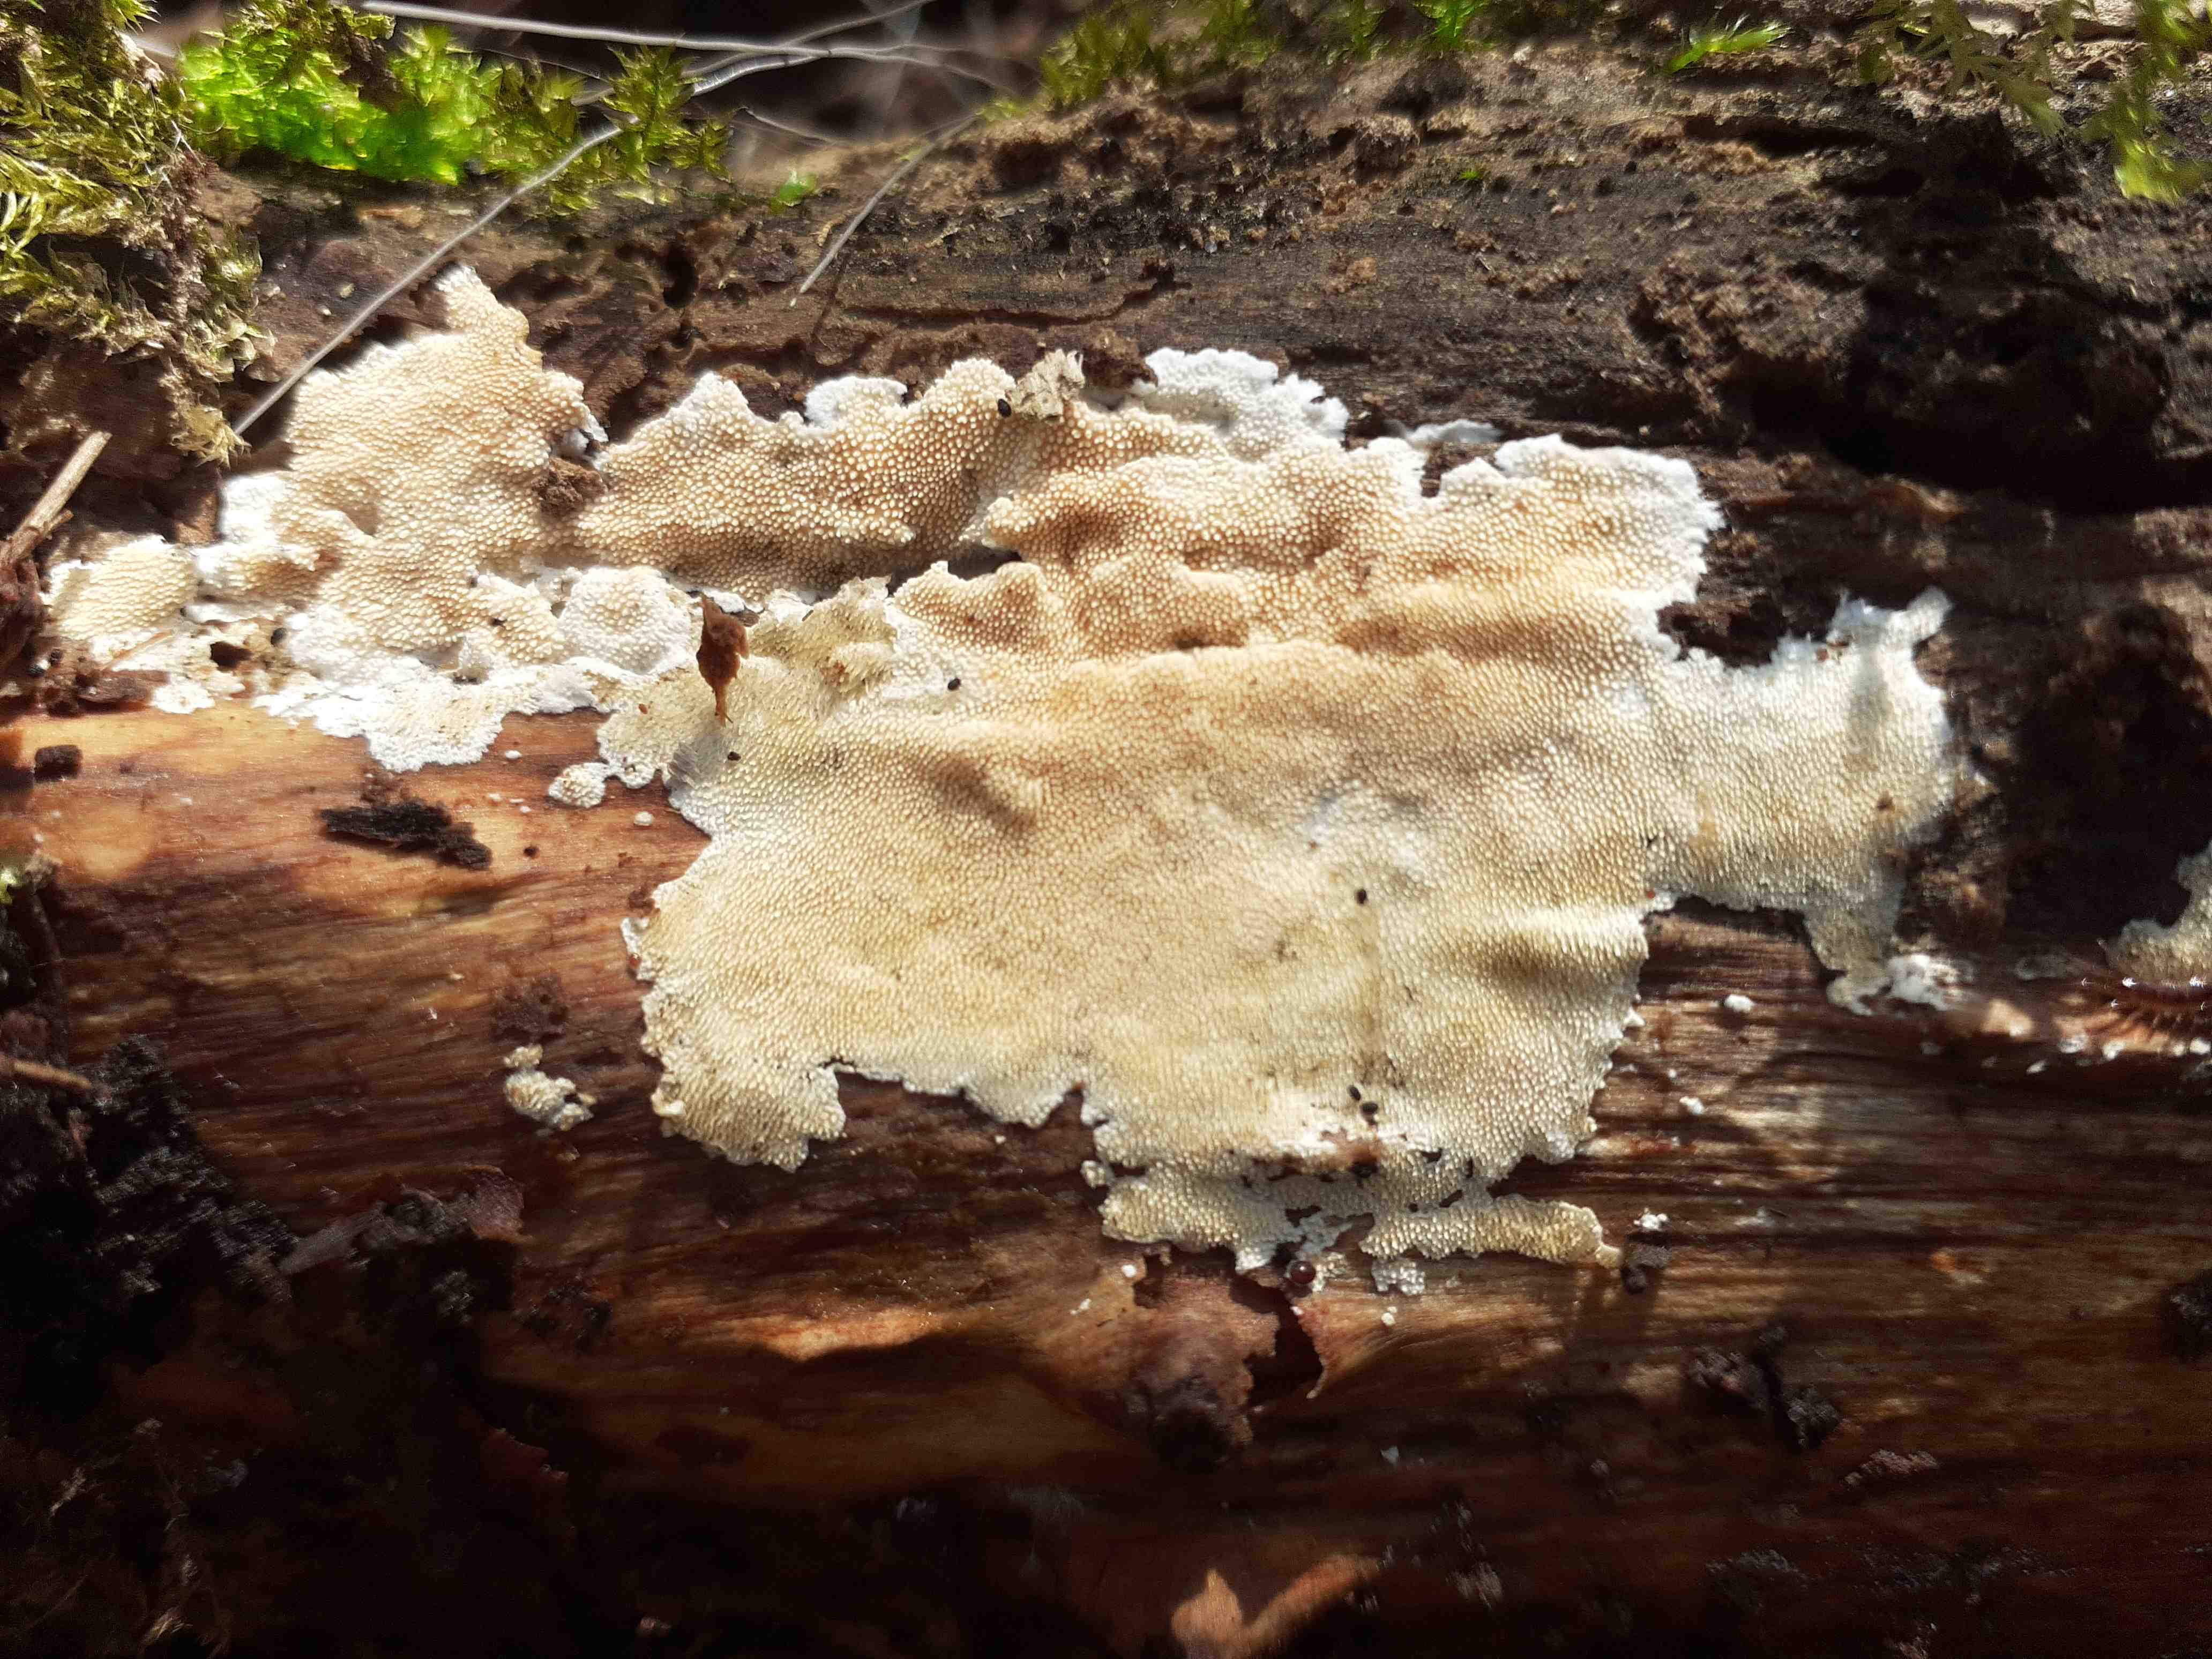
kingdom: Fungi
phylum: Basidiomycota
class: Agaricomycetes
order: Polyporales
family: Steccherinaceae
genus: Steccherinum
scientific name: Steccherinum ochraceum
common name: almindelig skønpig
